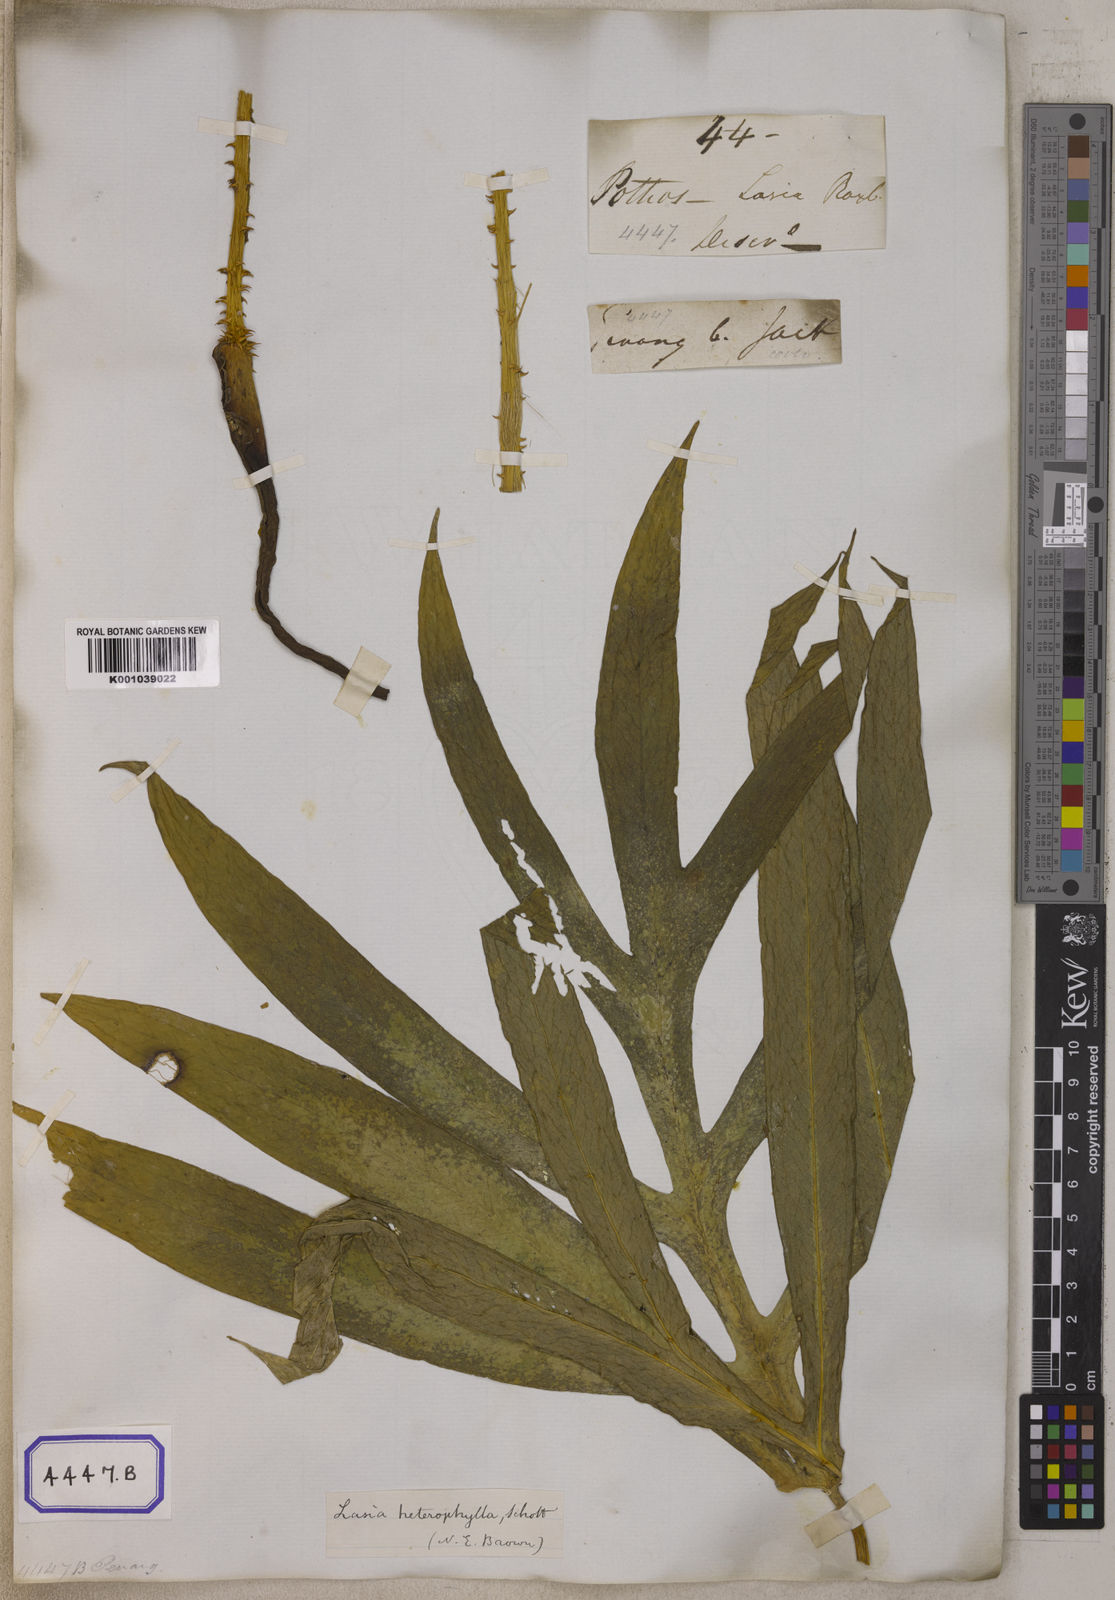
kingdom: Plantae
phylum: Tracheophyta
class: Liliopsida
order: Alismatales
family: Araceae
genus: Lasia
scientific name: Lasia spinosa
